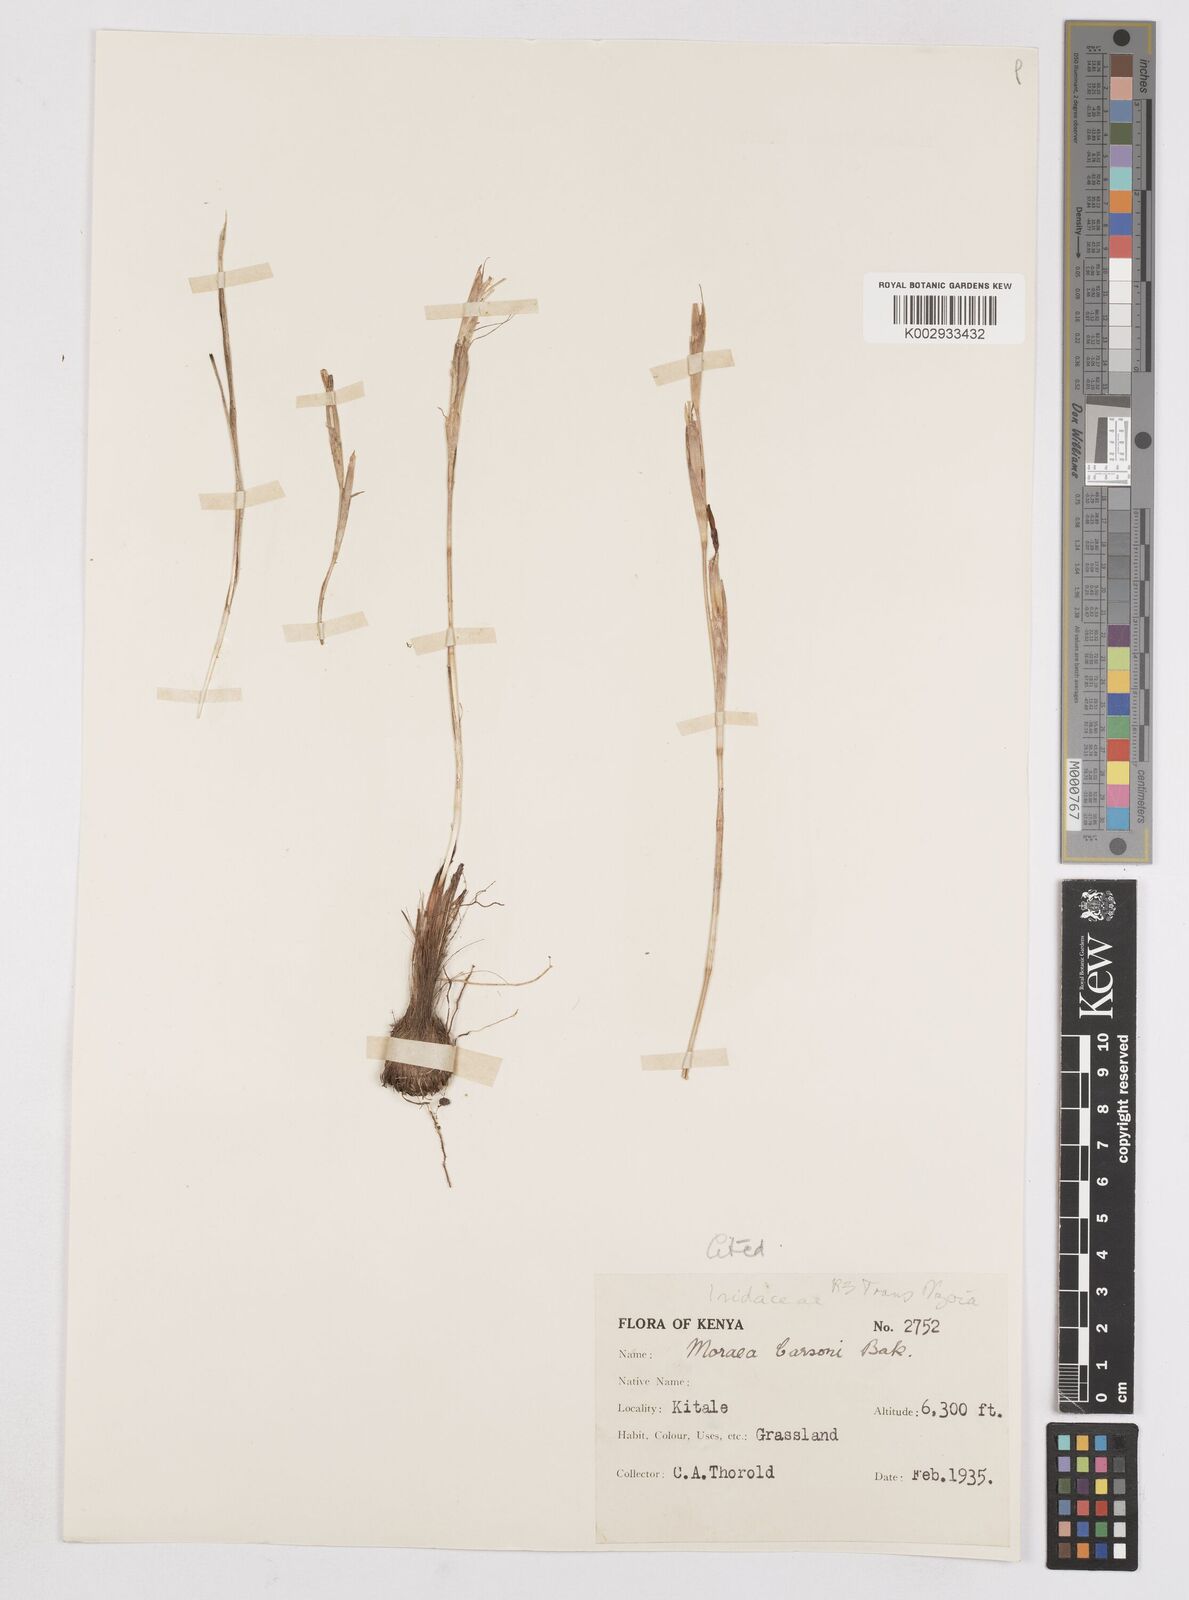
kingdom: Plantae
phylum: Tracheophyta
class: Liliopsida
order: Asparagales
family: Iridaceae
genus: Moraea
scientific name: Moraea thomsonii
